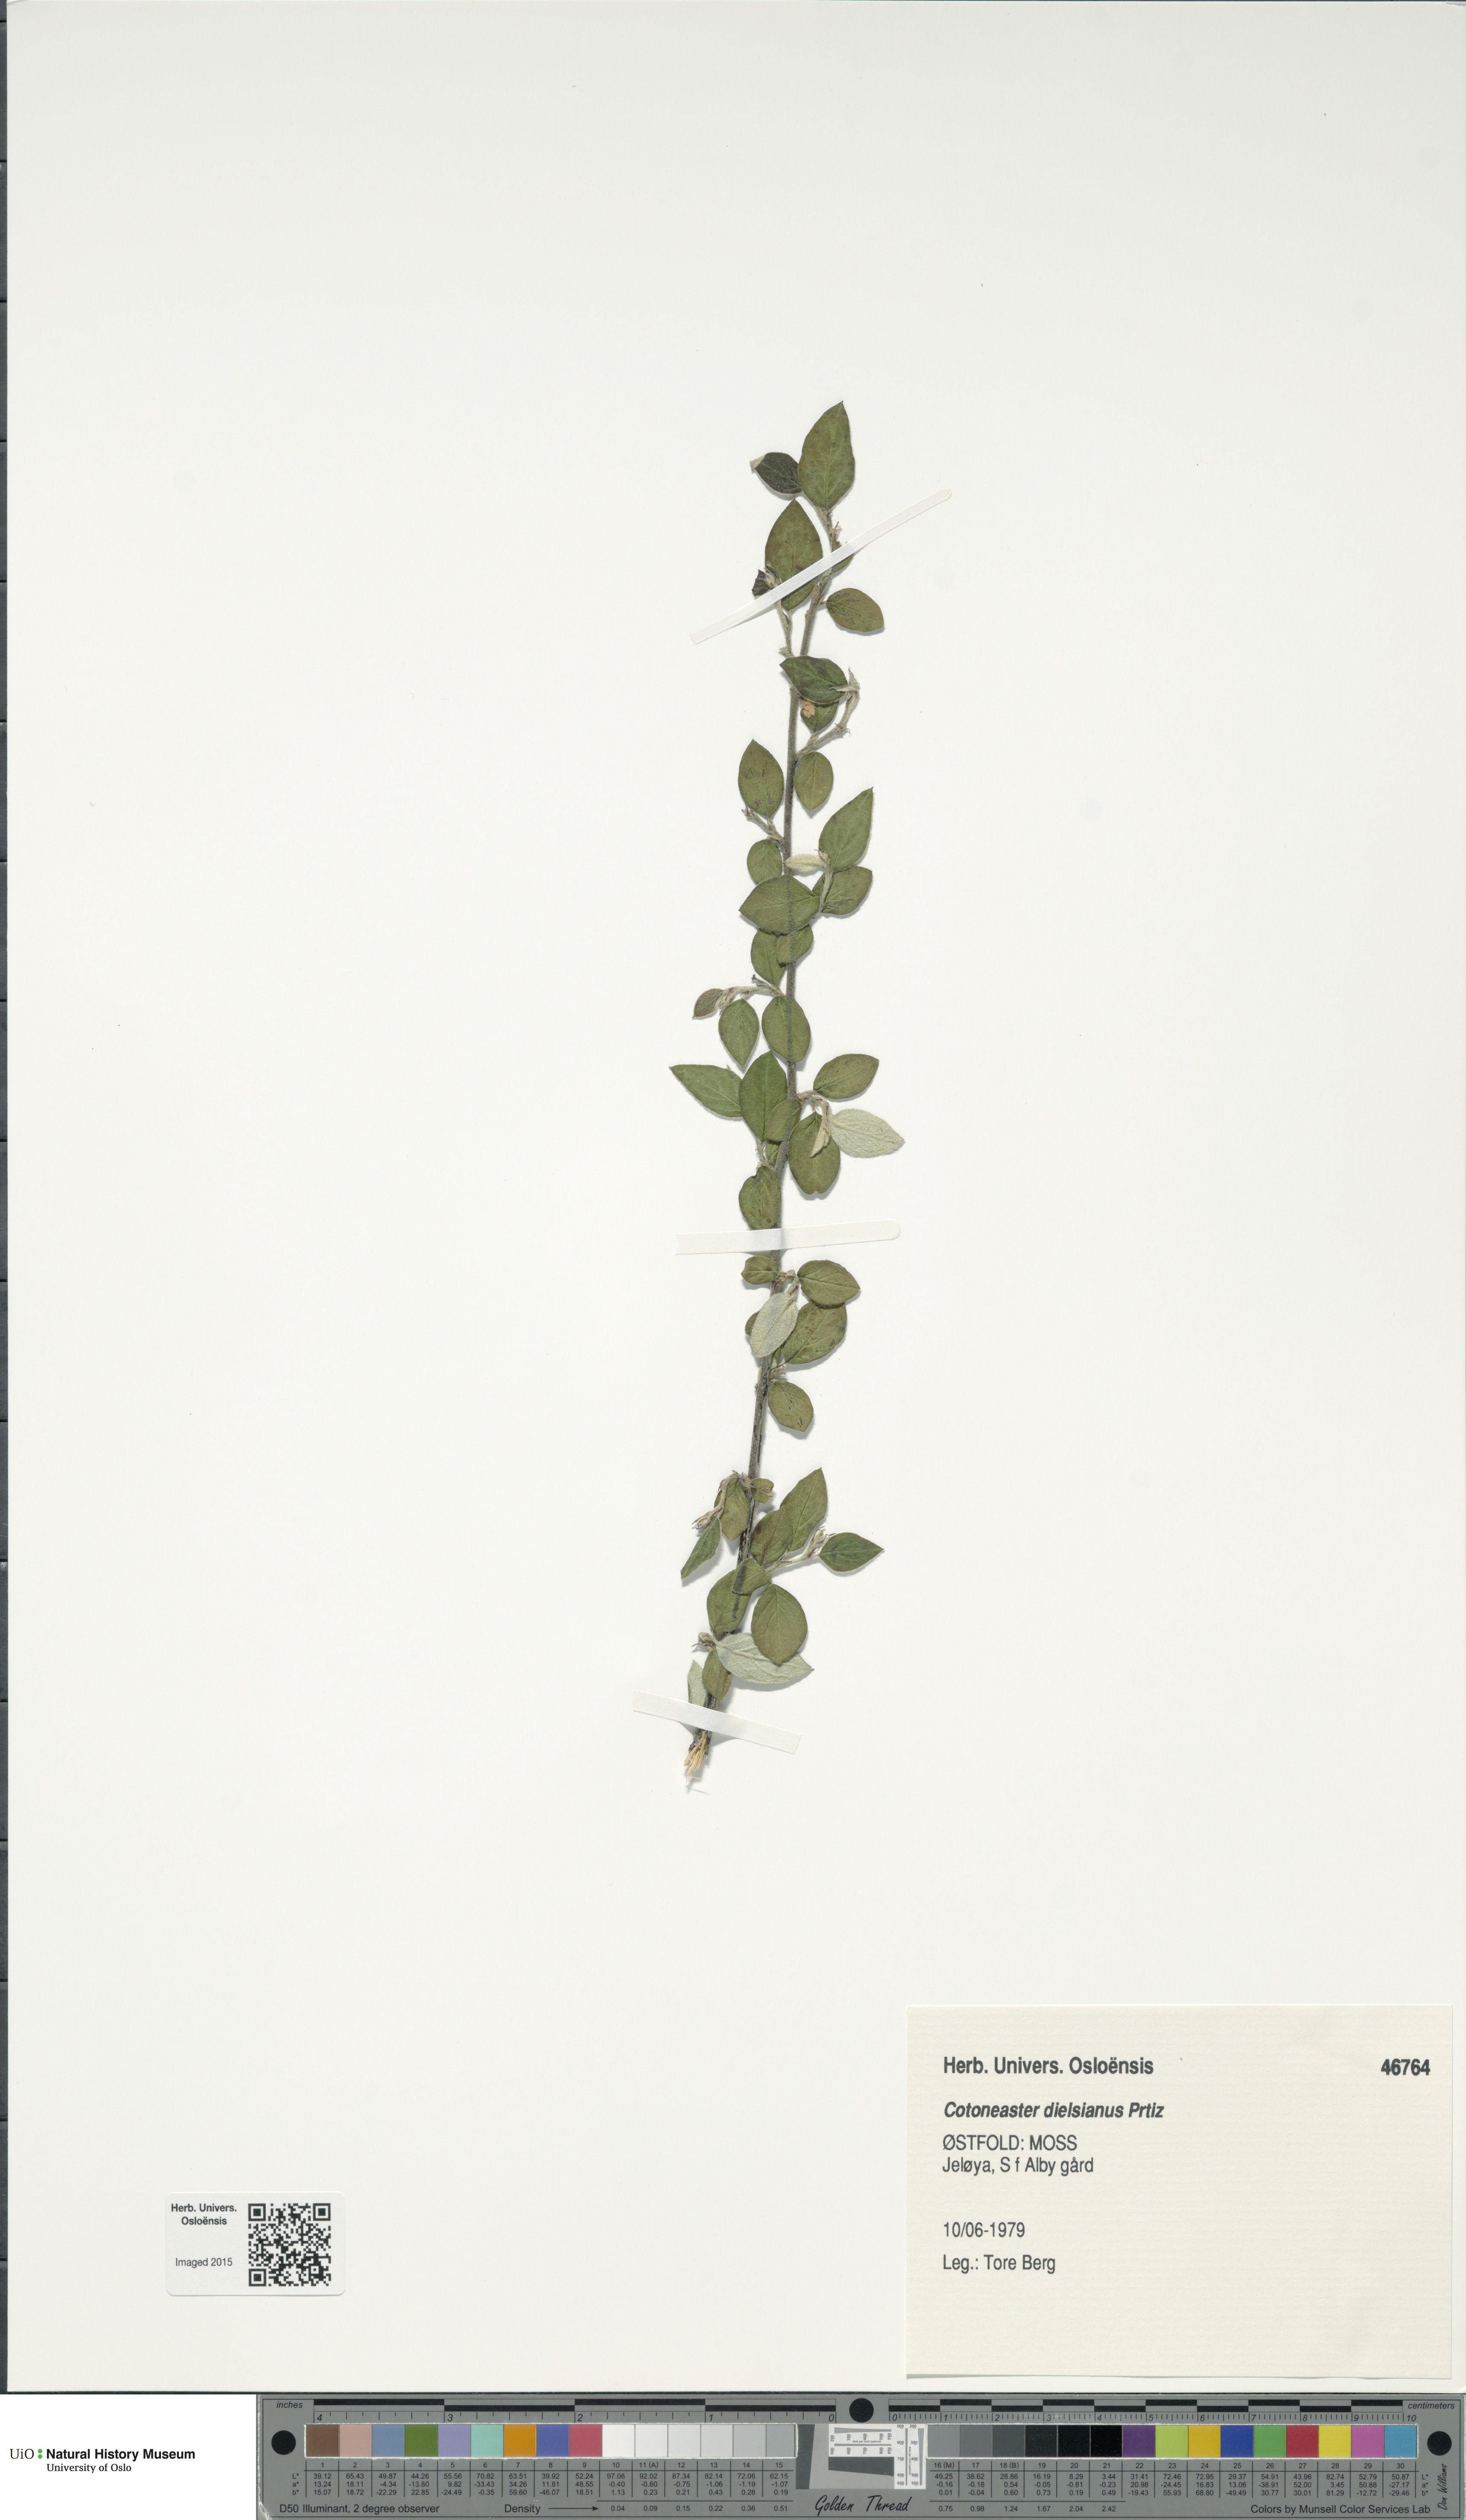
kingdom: Plantae
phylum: Tracheophyta
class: Magnoliopsida
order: Rosales
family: Rosaceae
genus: Cotoneaster
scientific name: Cotoneaster dielsianus
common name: Diels's cotoneaster
